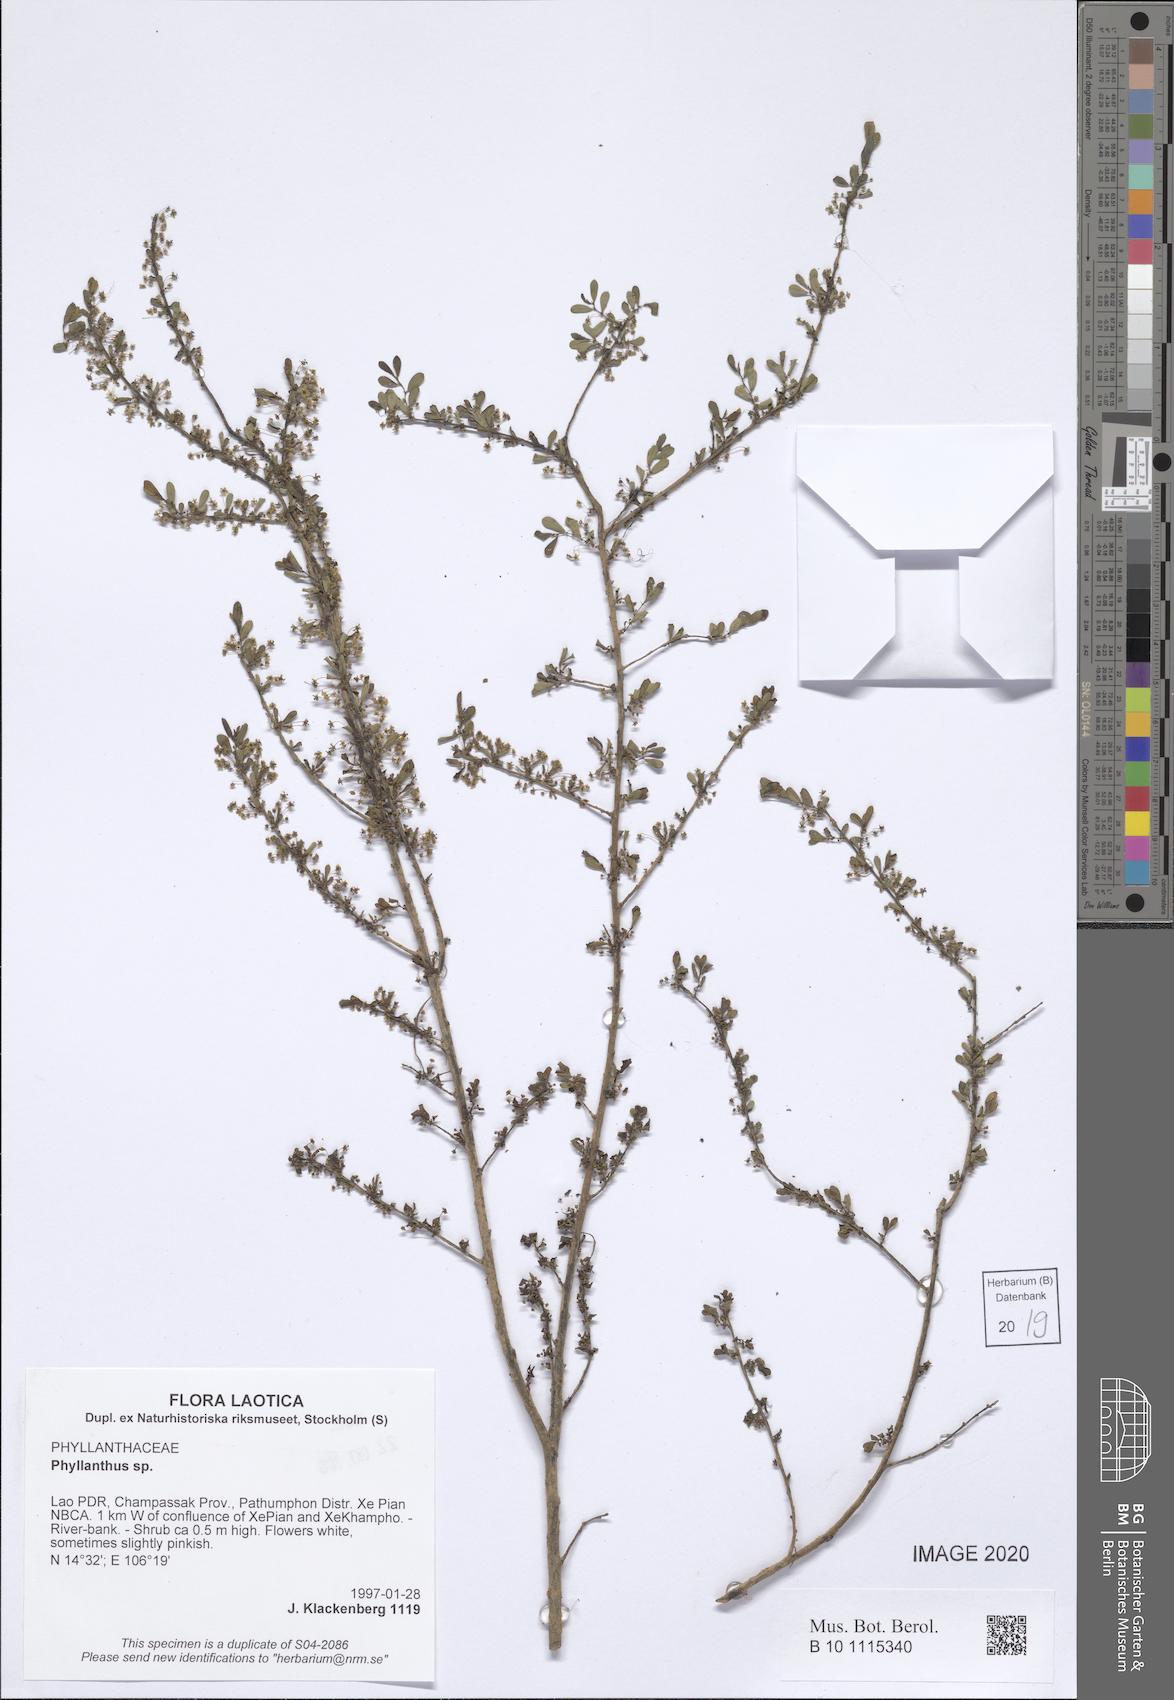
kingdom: Plantae
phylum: Tracheophyta
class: Magnoliopsida
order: Malpighiales
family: Phyllanthaceae
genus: Phyllanthus
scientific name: Phyllanthus
